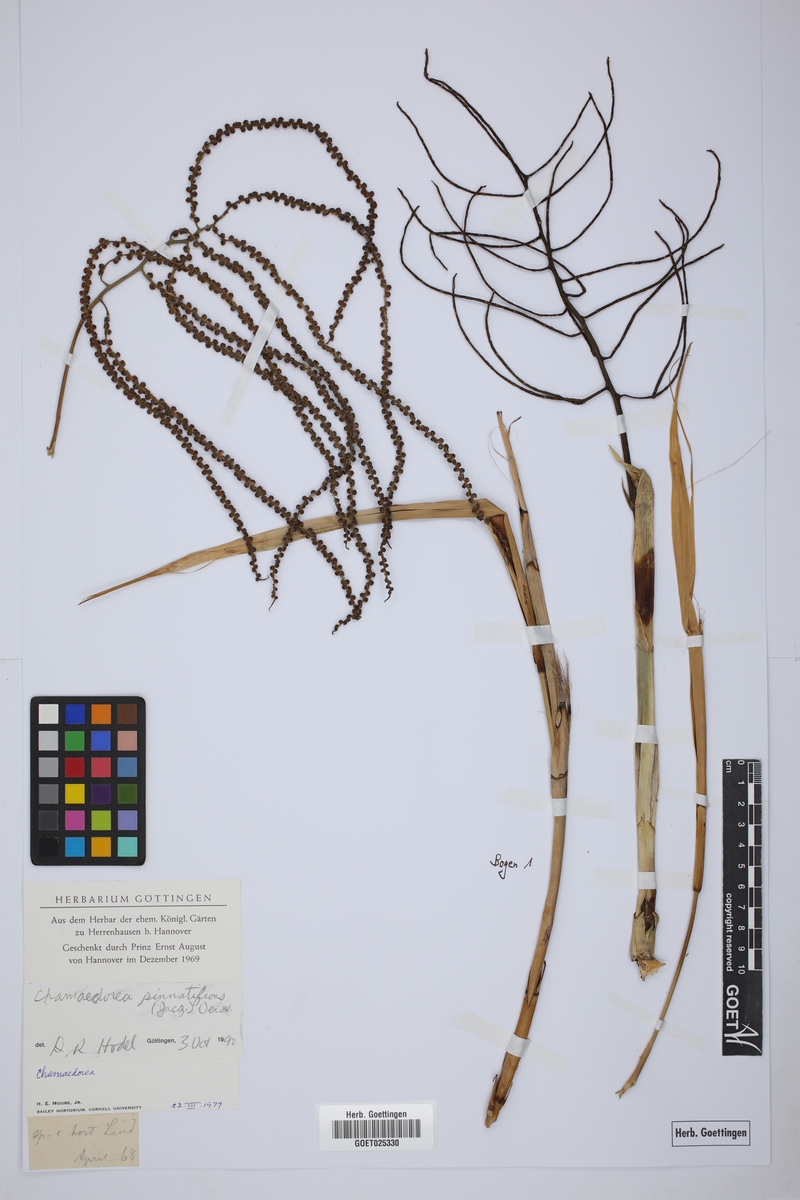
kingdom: Plantae
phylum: Tracheophyta
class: Liliopsida
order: Arecales
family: Arecaceae
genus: Chamaedorea
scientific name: Chamaedorea pinnatifrons
